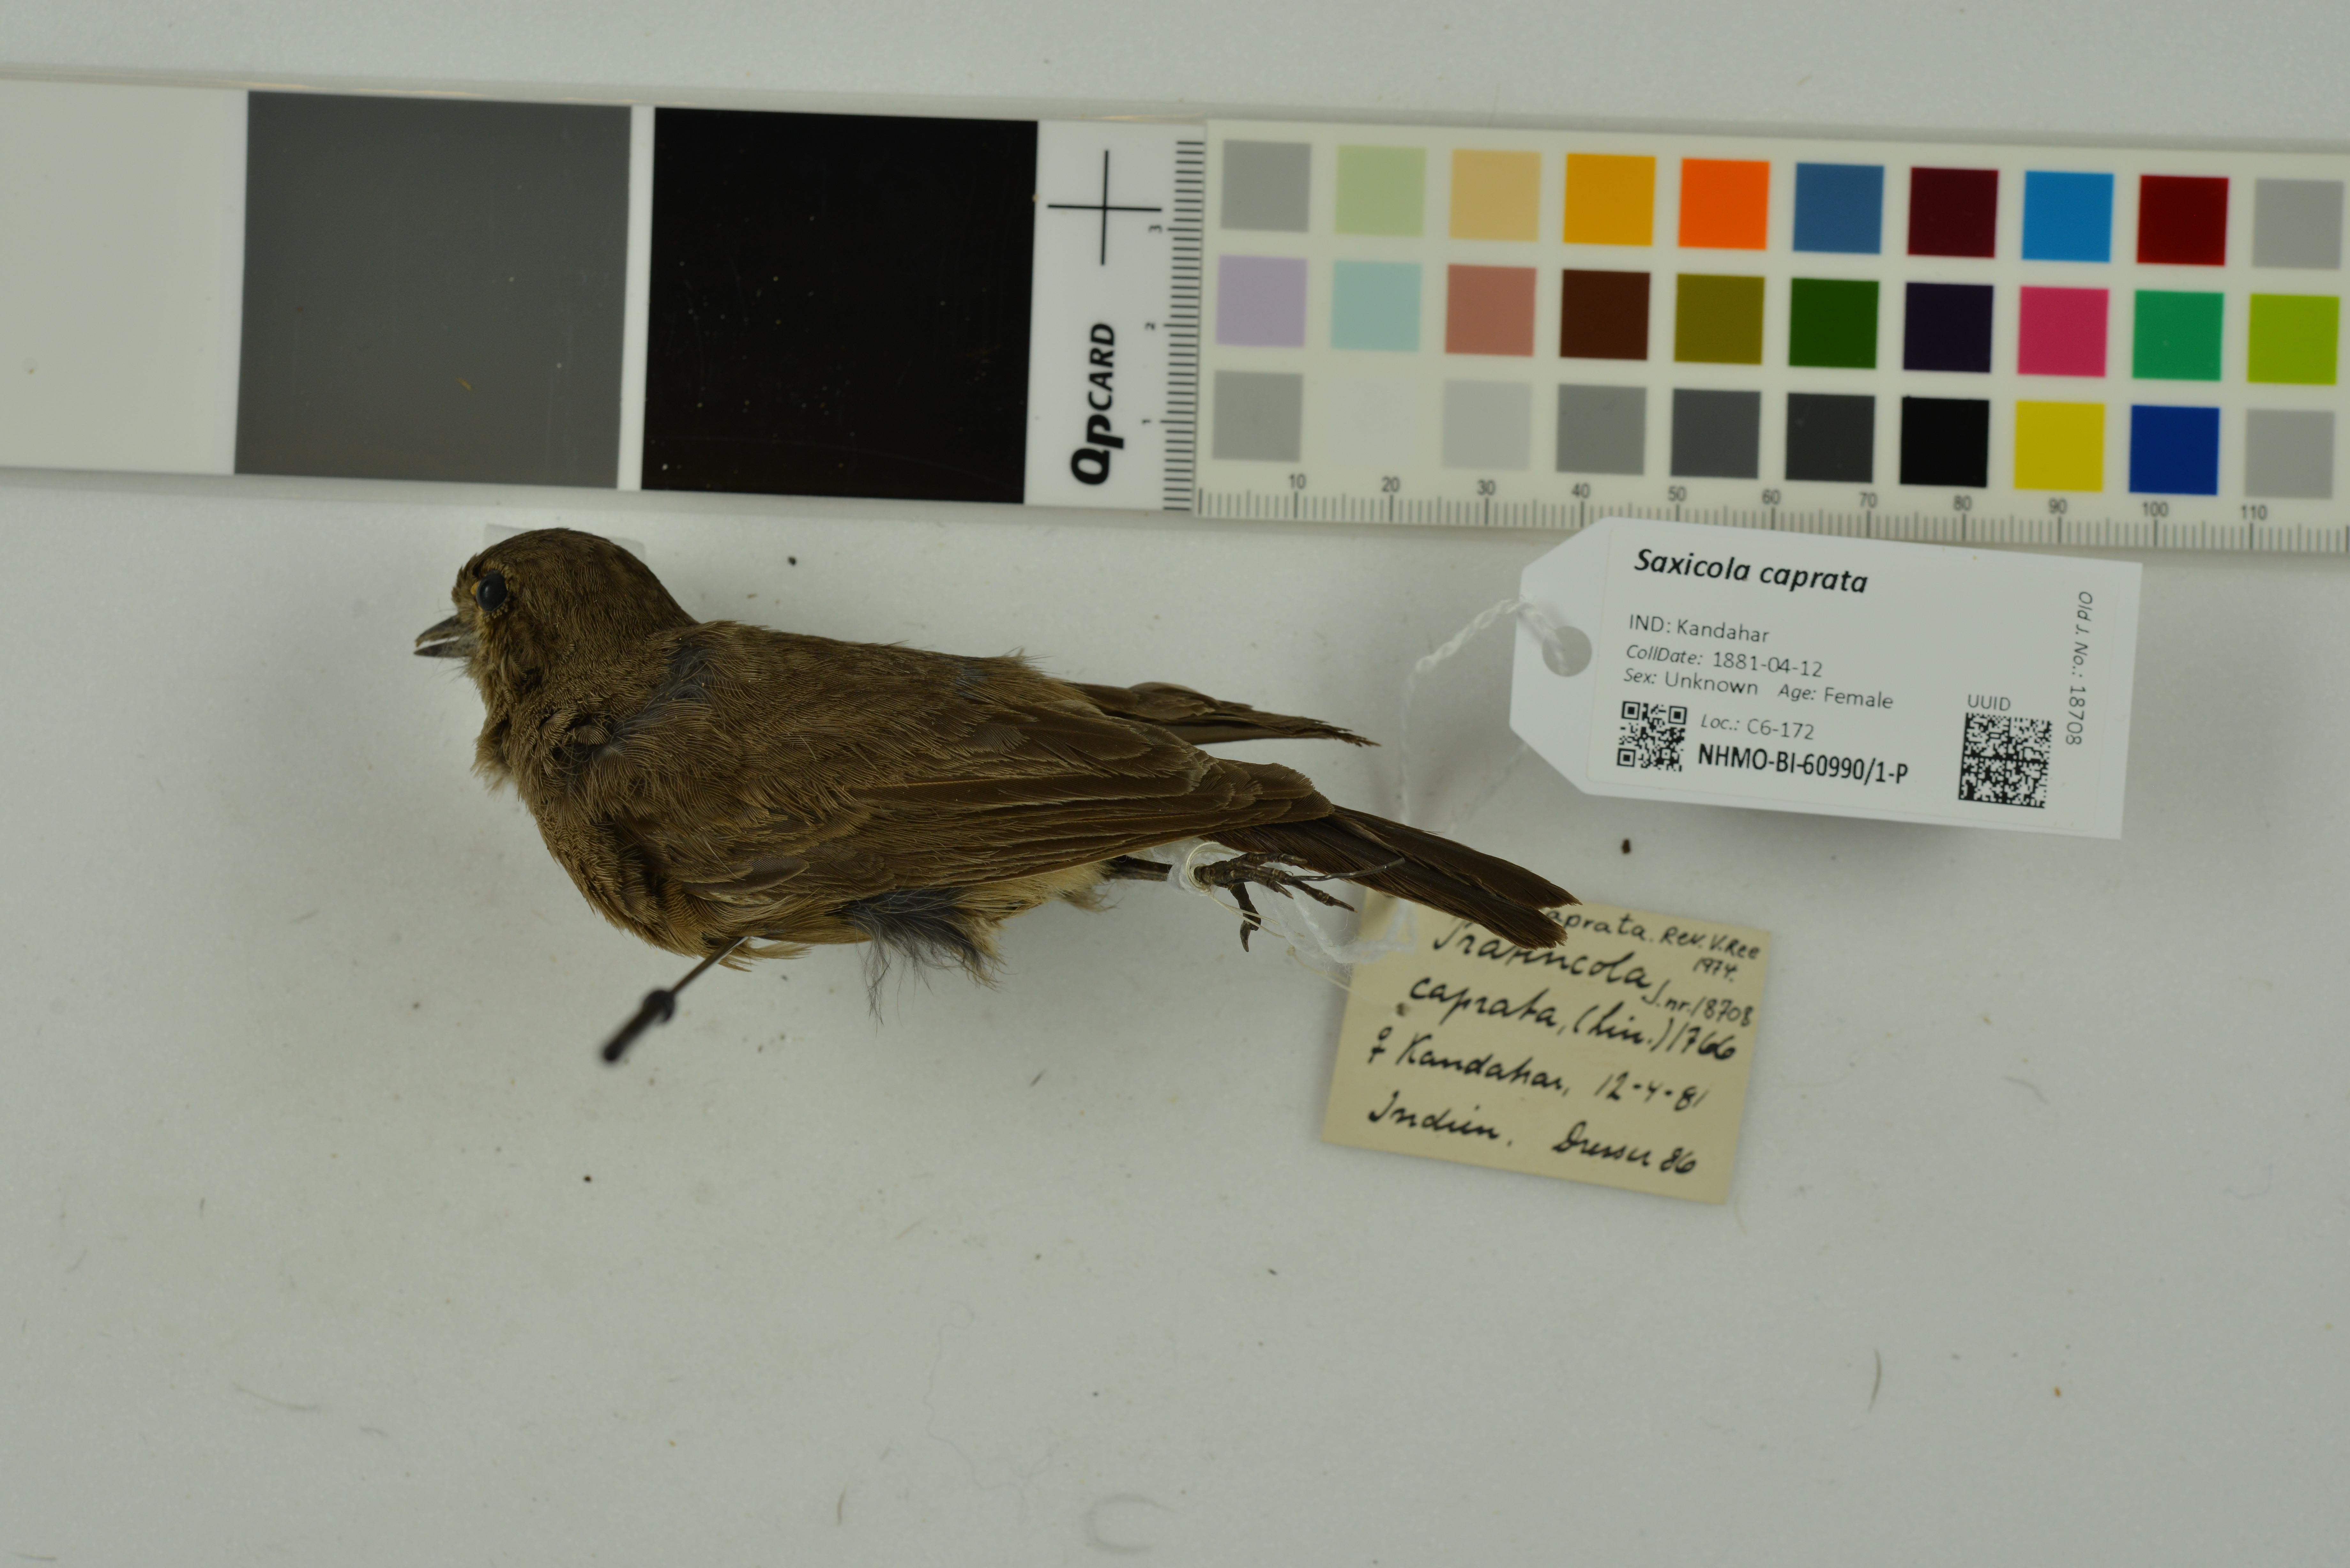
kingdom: Animalia
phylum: Chordata
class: Aves
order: Passeriformes
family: Muscicapidae
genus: Saxicola
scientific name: Saxicola caprata
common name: Pied bush chat
